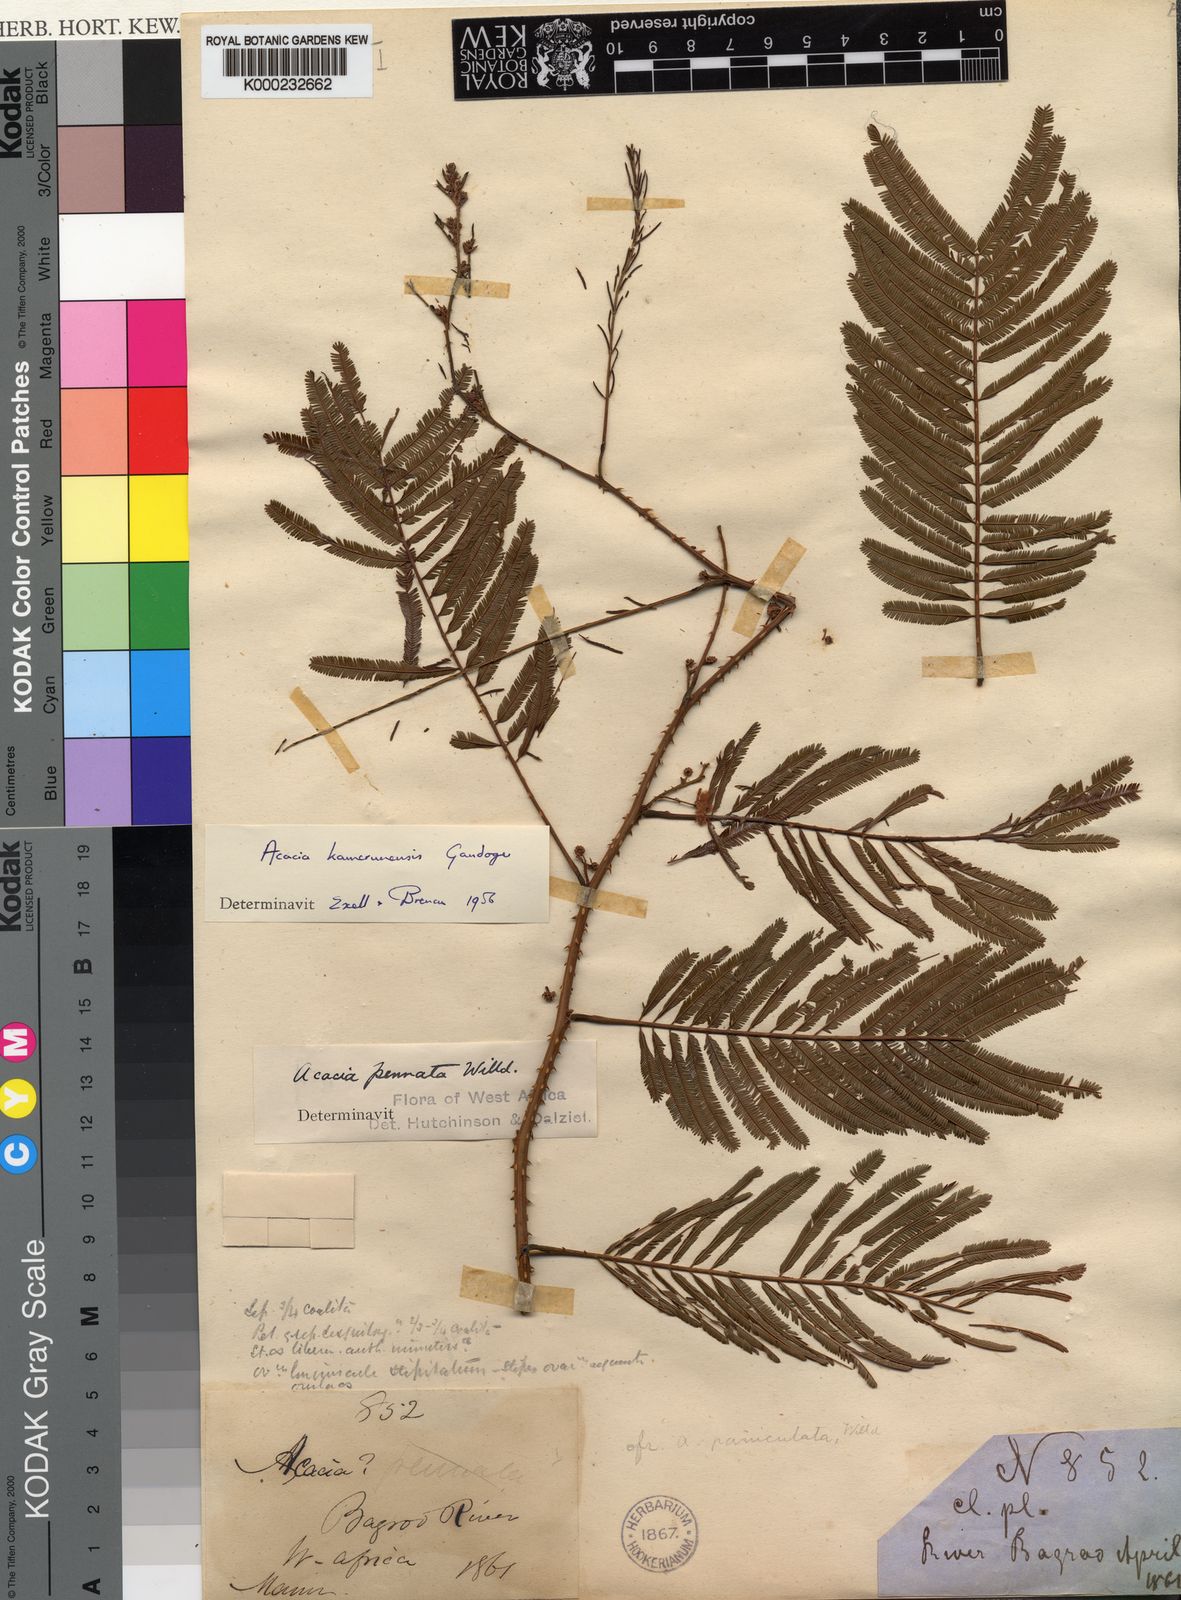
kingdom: Plantae
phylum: Tracheophyta
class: Magnoliopsida
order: Fabales
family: Fabaceae
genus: Senegalia
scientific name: Senegalia kamerunensis
